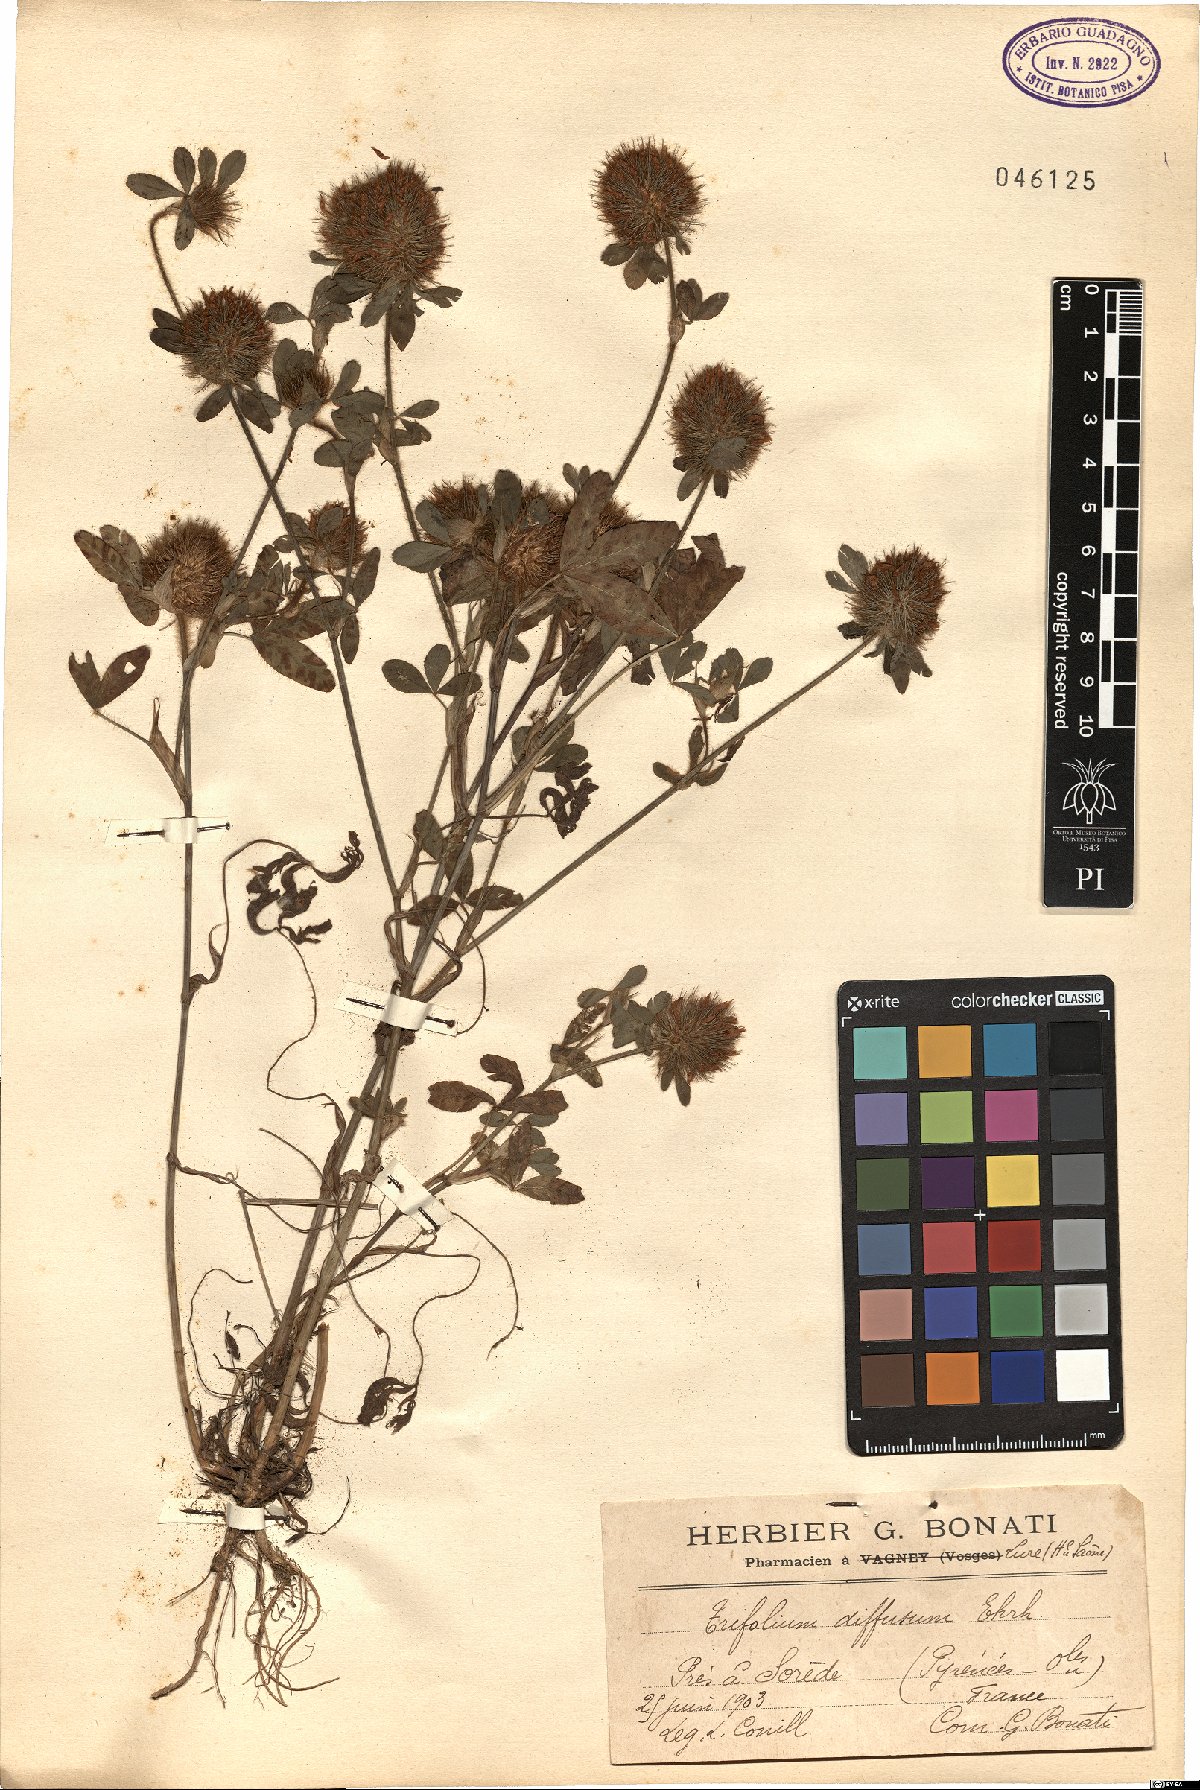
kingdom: Plantae
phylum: Tracheophyta
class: Magnoliopsida
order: Fabales
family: Fabaceae
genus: Trifolium
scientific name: Trifolium diffusum
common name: Diffuse clover
